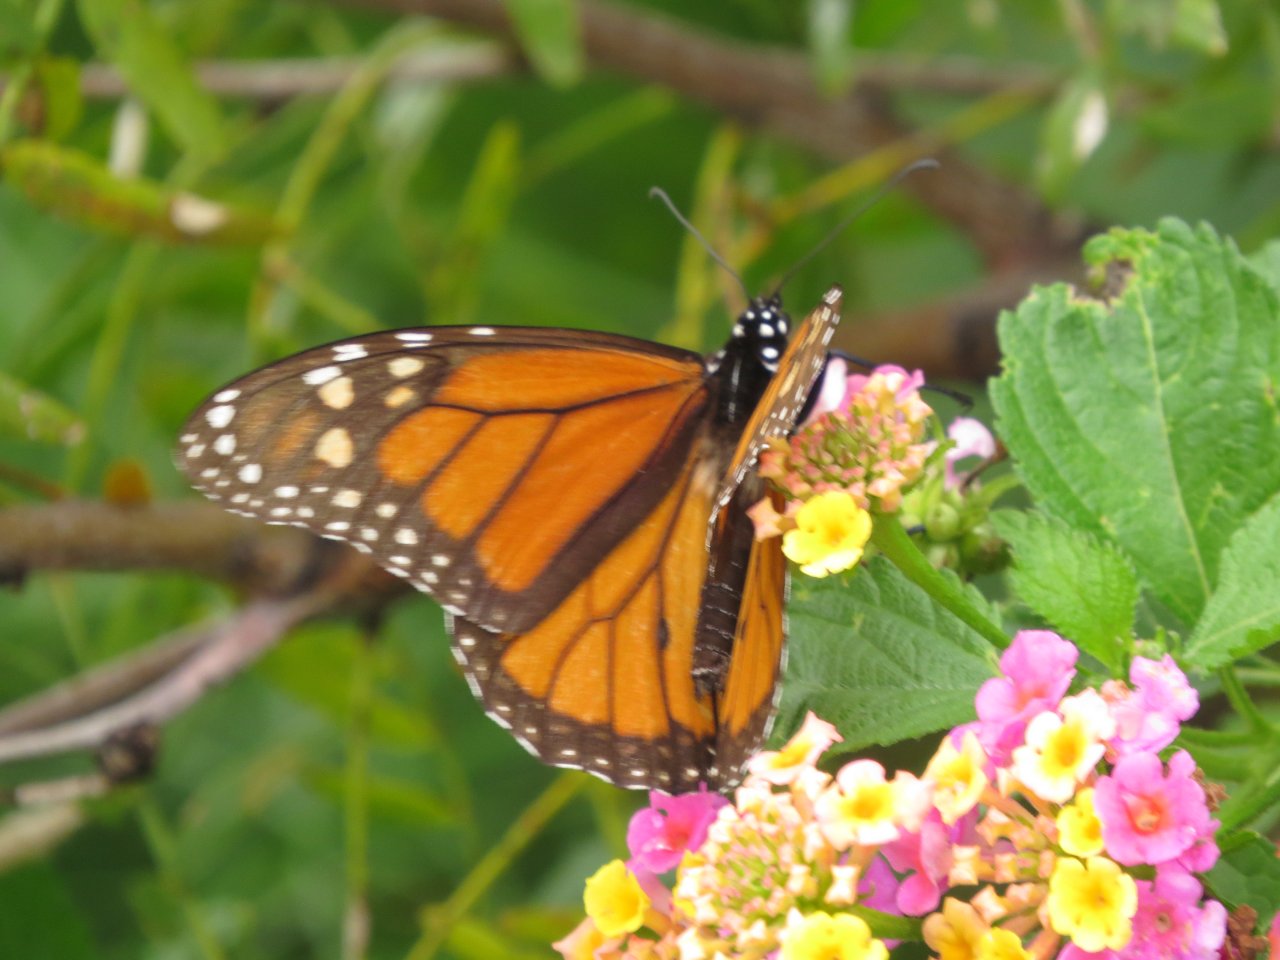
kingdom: Animalia
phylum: Arthropoda
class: Insecta
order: Lepidoptera
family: Nymphalidae
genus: Danaus
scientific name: Danaus plexippus
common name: Monarch
